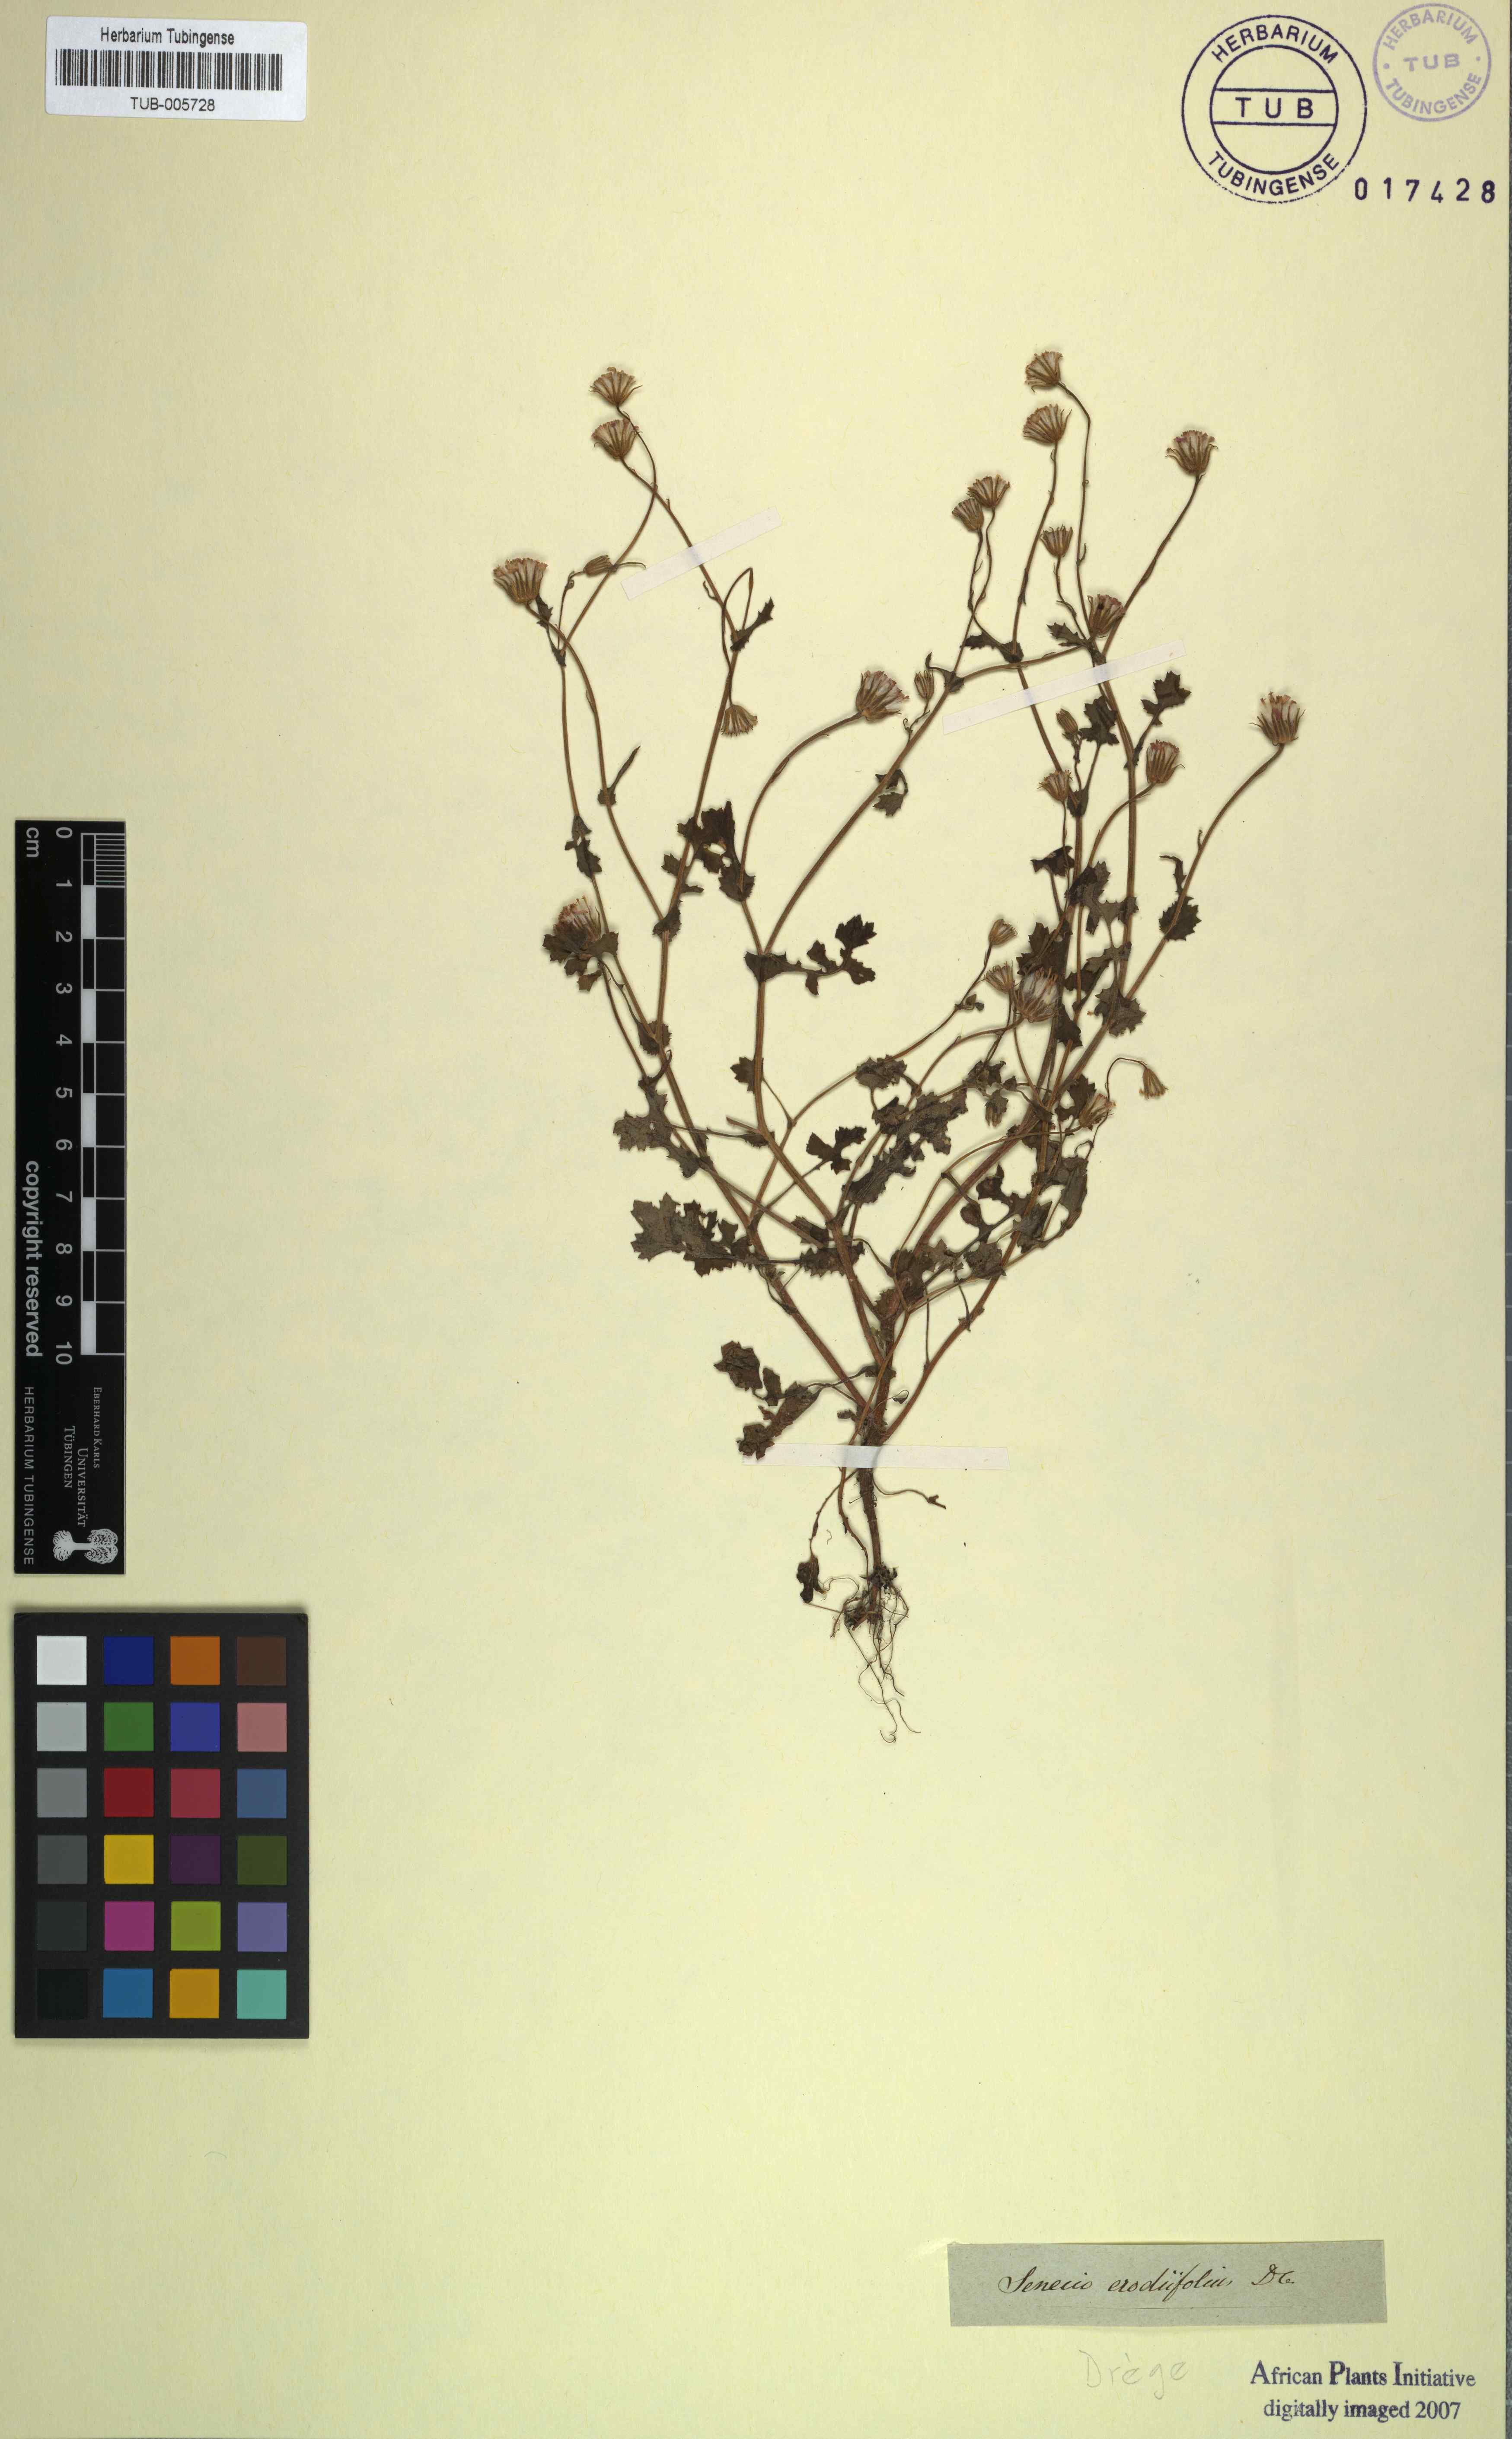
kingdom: Plantae
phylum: Tracheophyta
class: Magnoliopsida
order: Asterales
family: Asteraceae
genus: Senecio
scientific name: Senecio repandus
